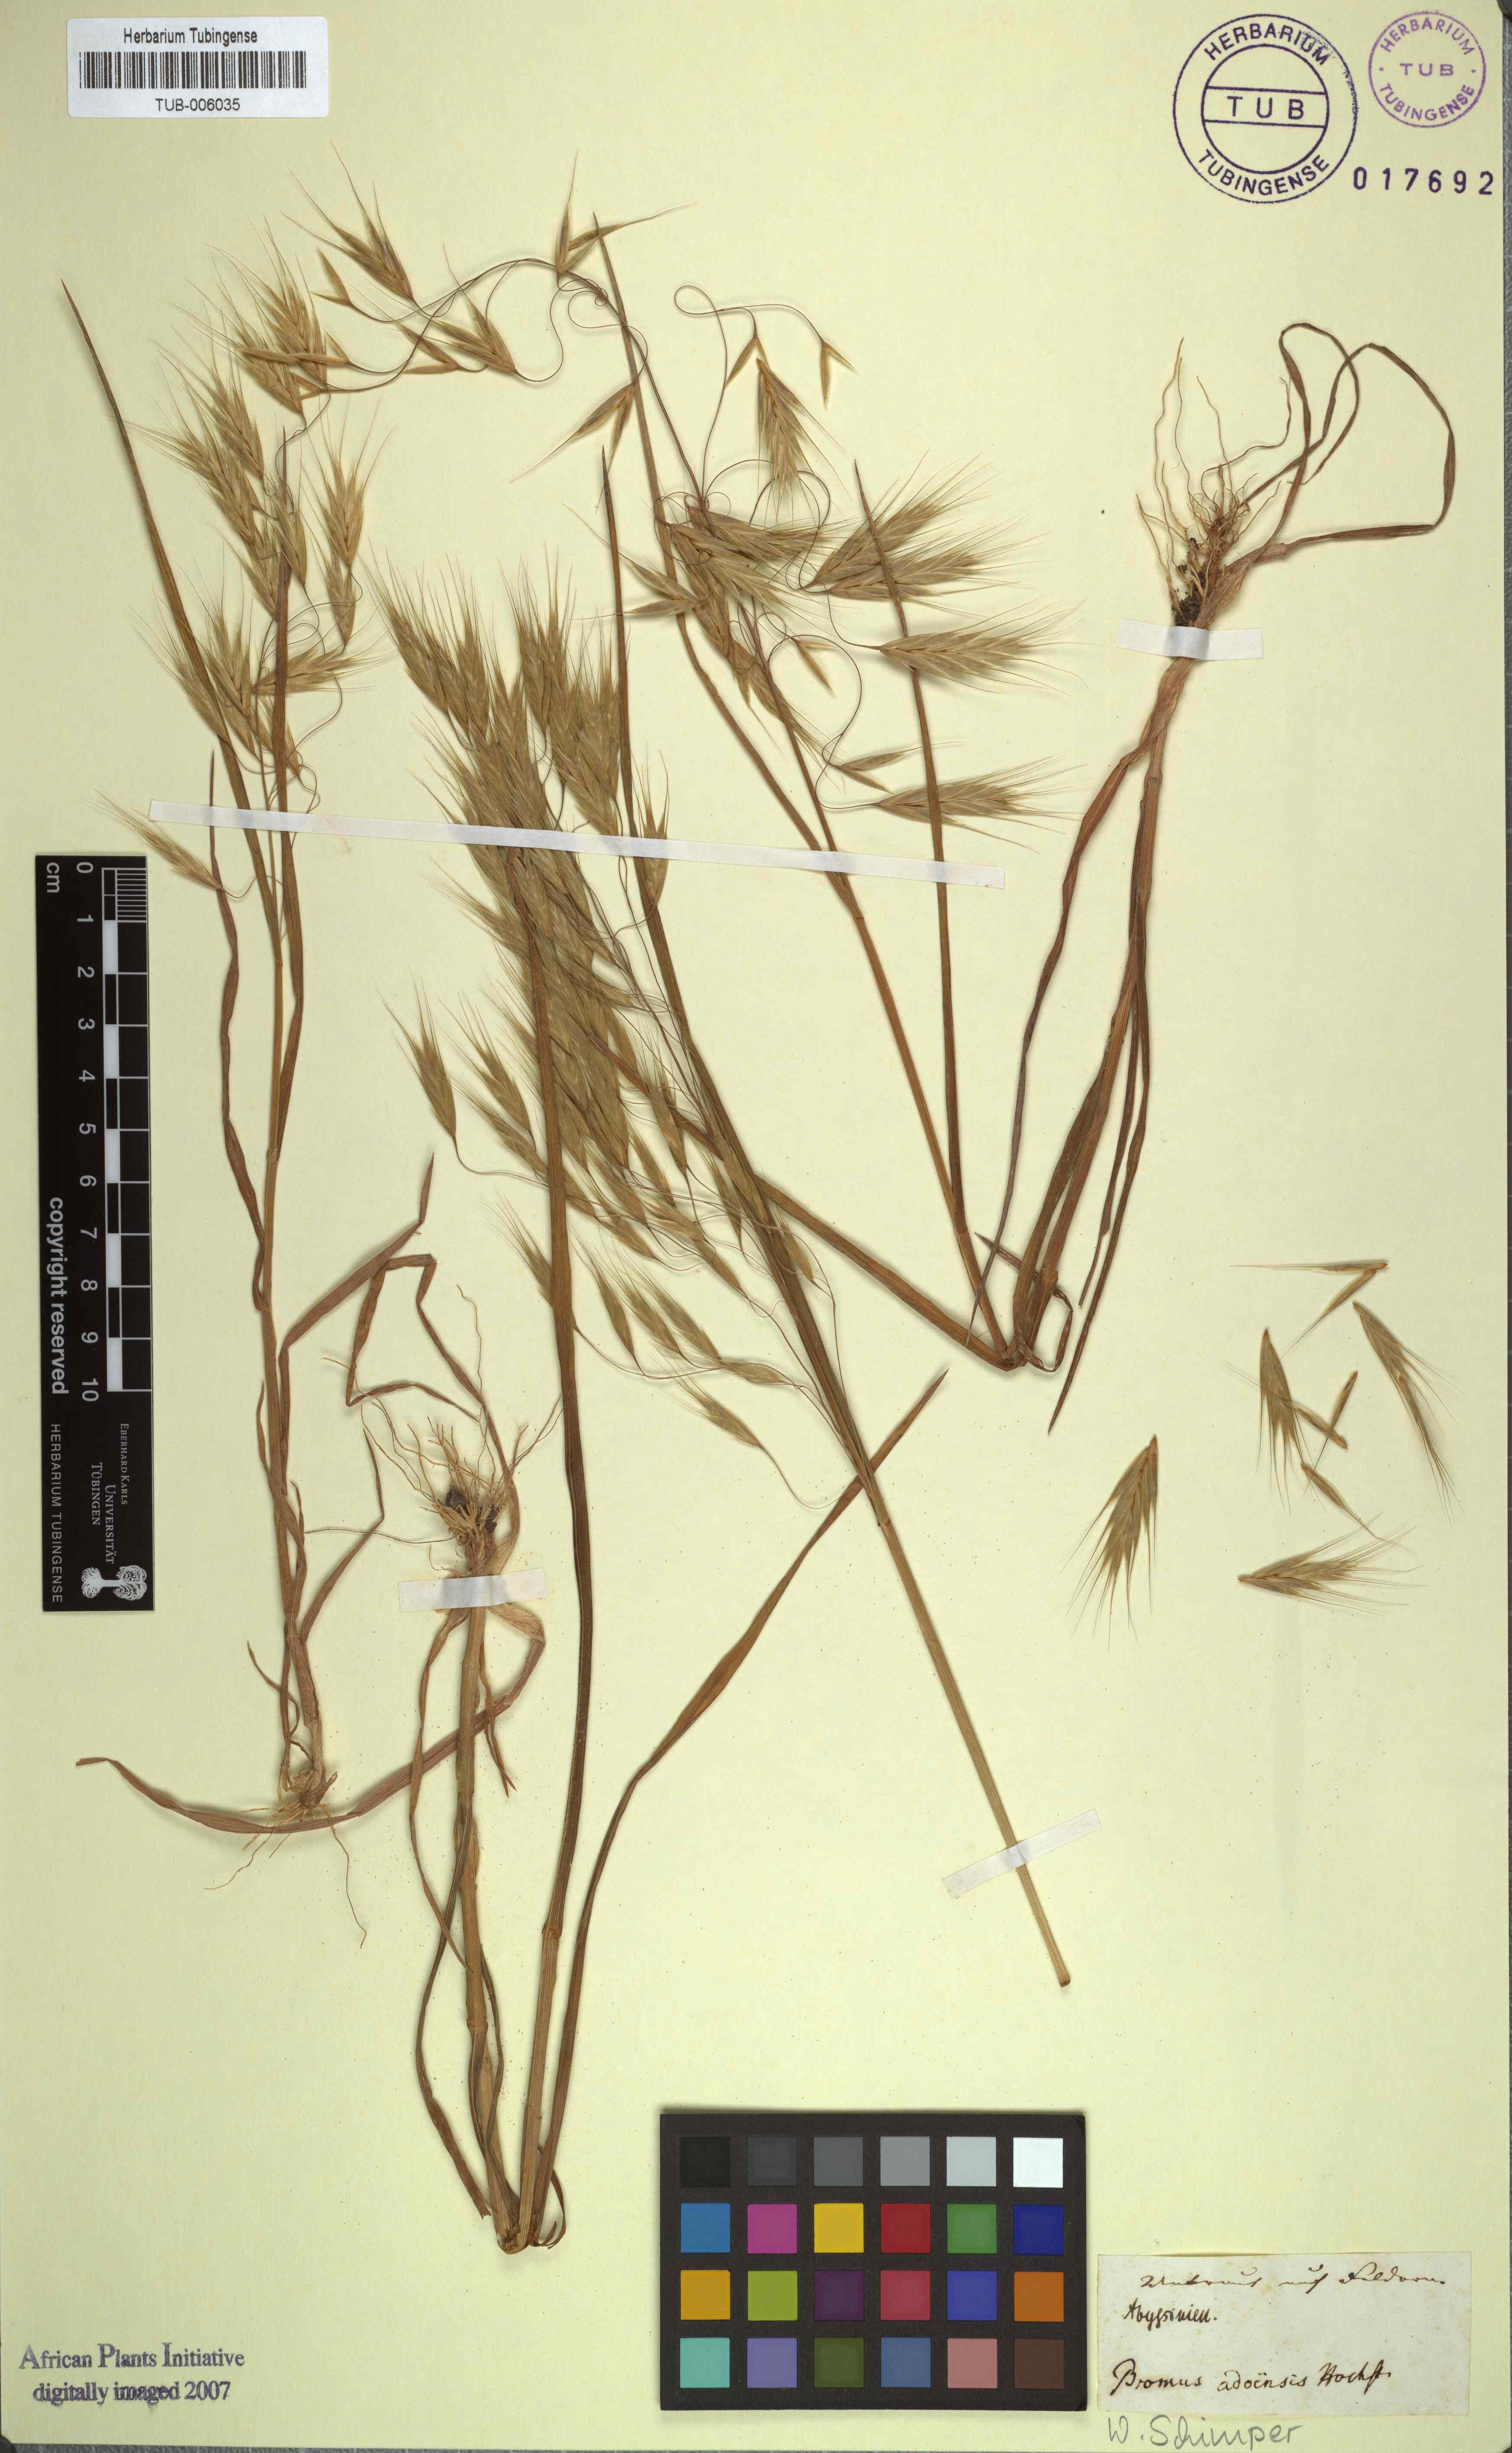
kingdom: Plantae
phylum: Tracheophyta
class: Liliopsida
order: Poales
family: Poaceae
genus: Bromus
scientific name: Bromus pectinatus
